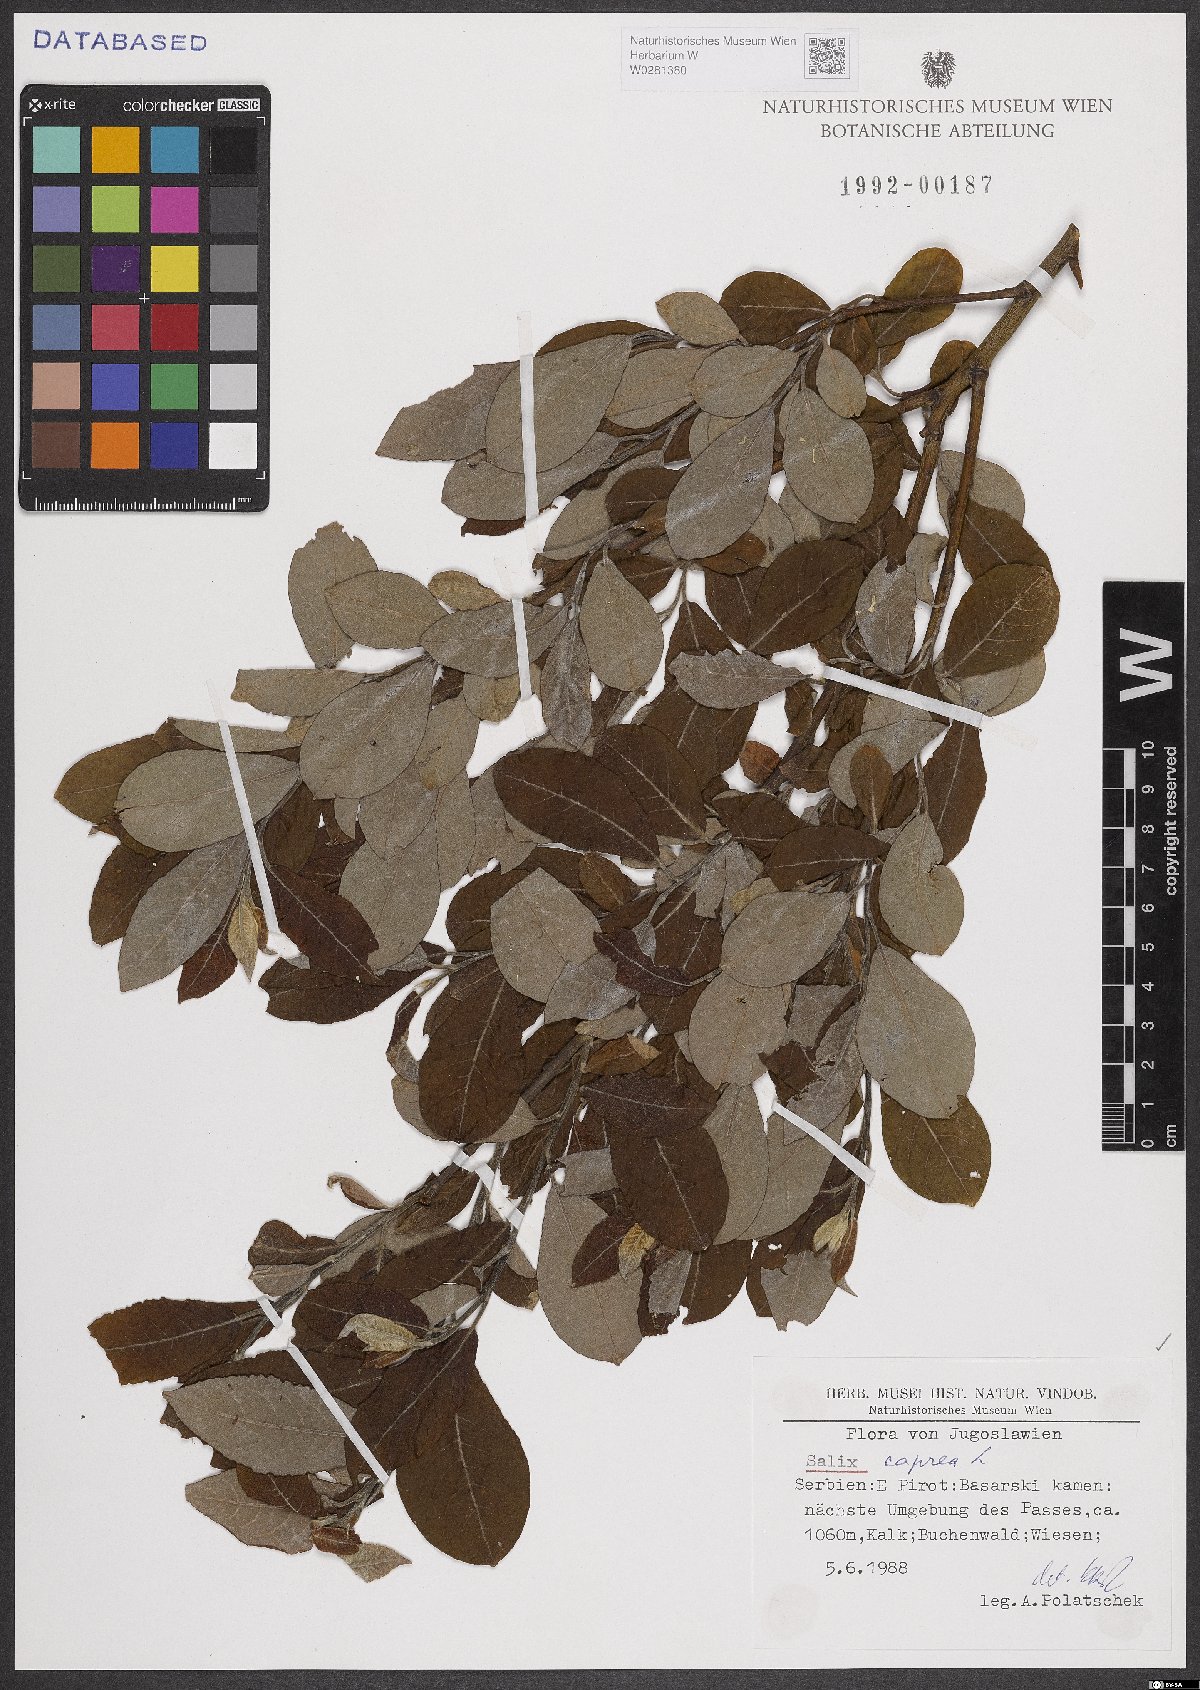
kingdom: Plantae
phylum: Tracheophyta
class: Magnoliopsida
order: Malpighiales
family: Salicaceae
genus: Salix
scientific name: Salix caprea
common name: Goat willow
